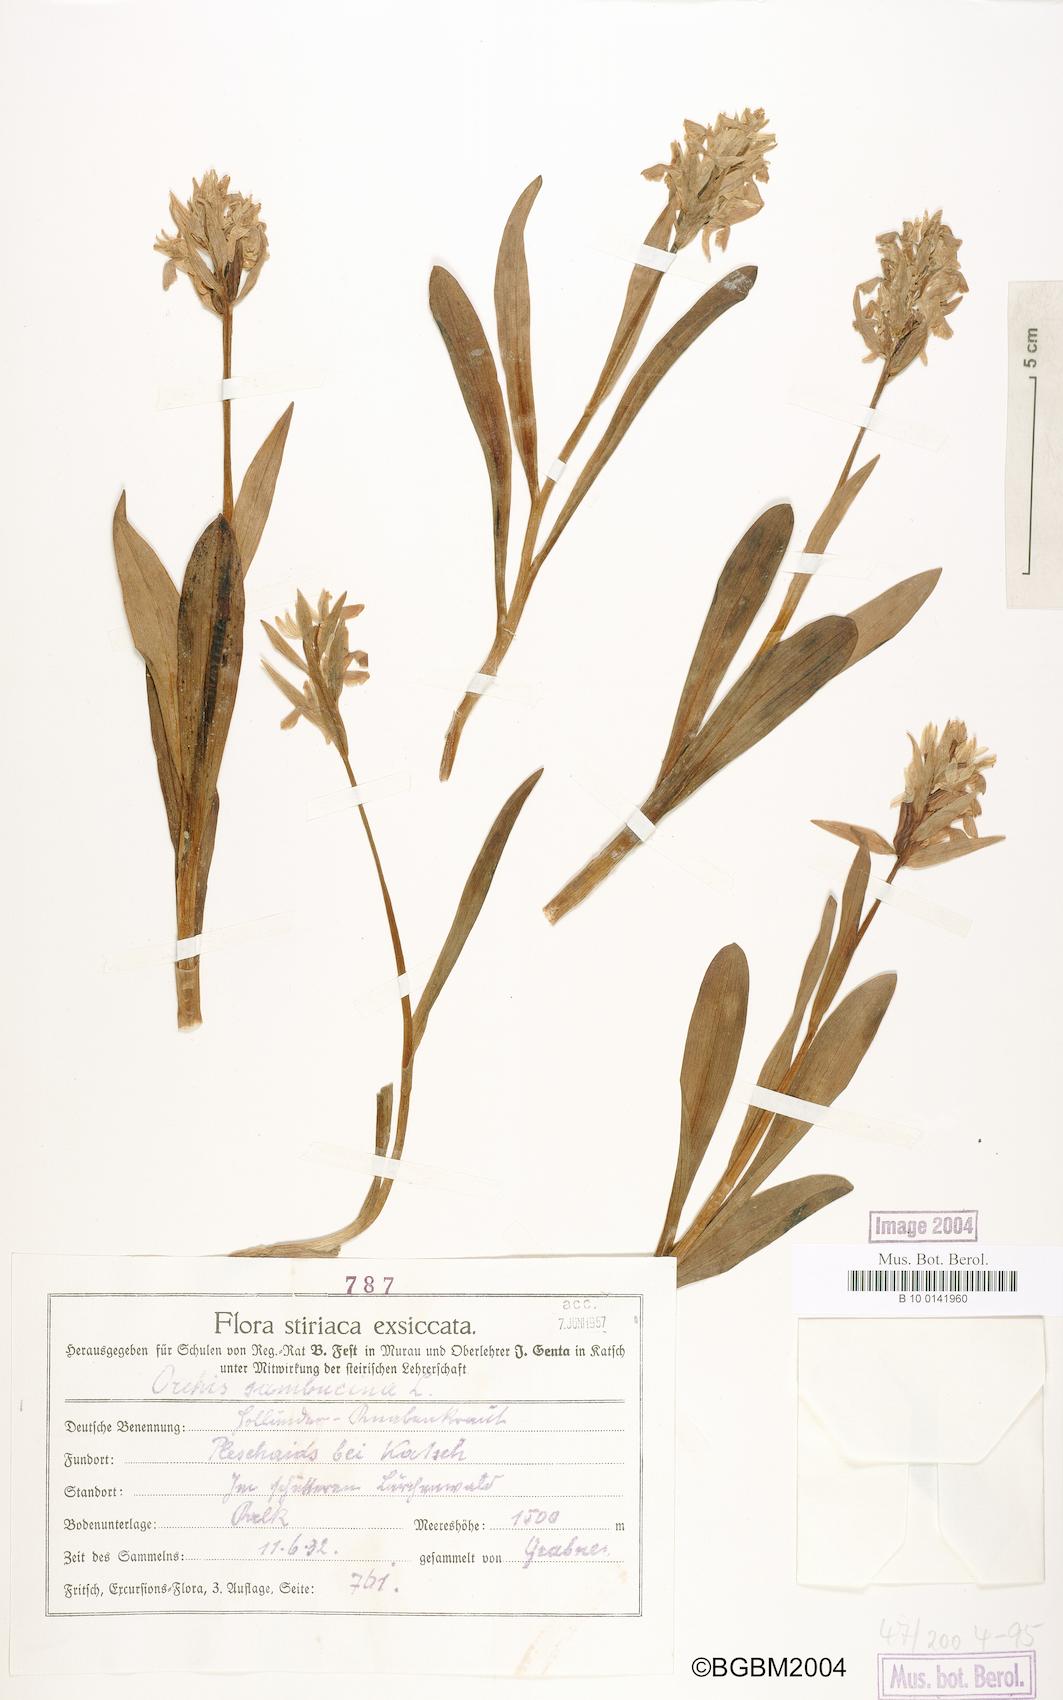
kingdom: Plantae
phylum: Tracheophyta
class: Liliopsida
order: Asparagales
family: Orchidaceae
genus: Dactylorhiza
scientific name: Dactylorhiza sambucina
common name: Elder-flowered orchid
